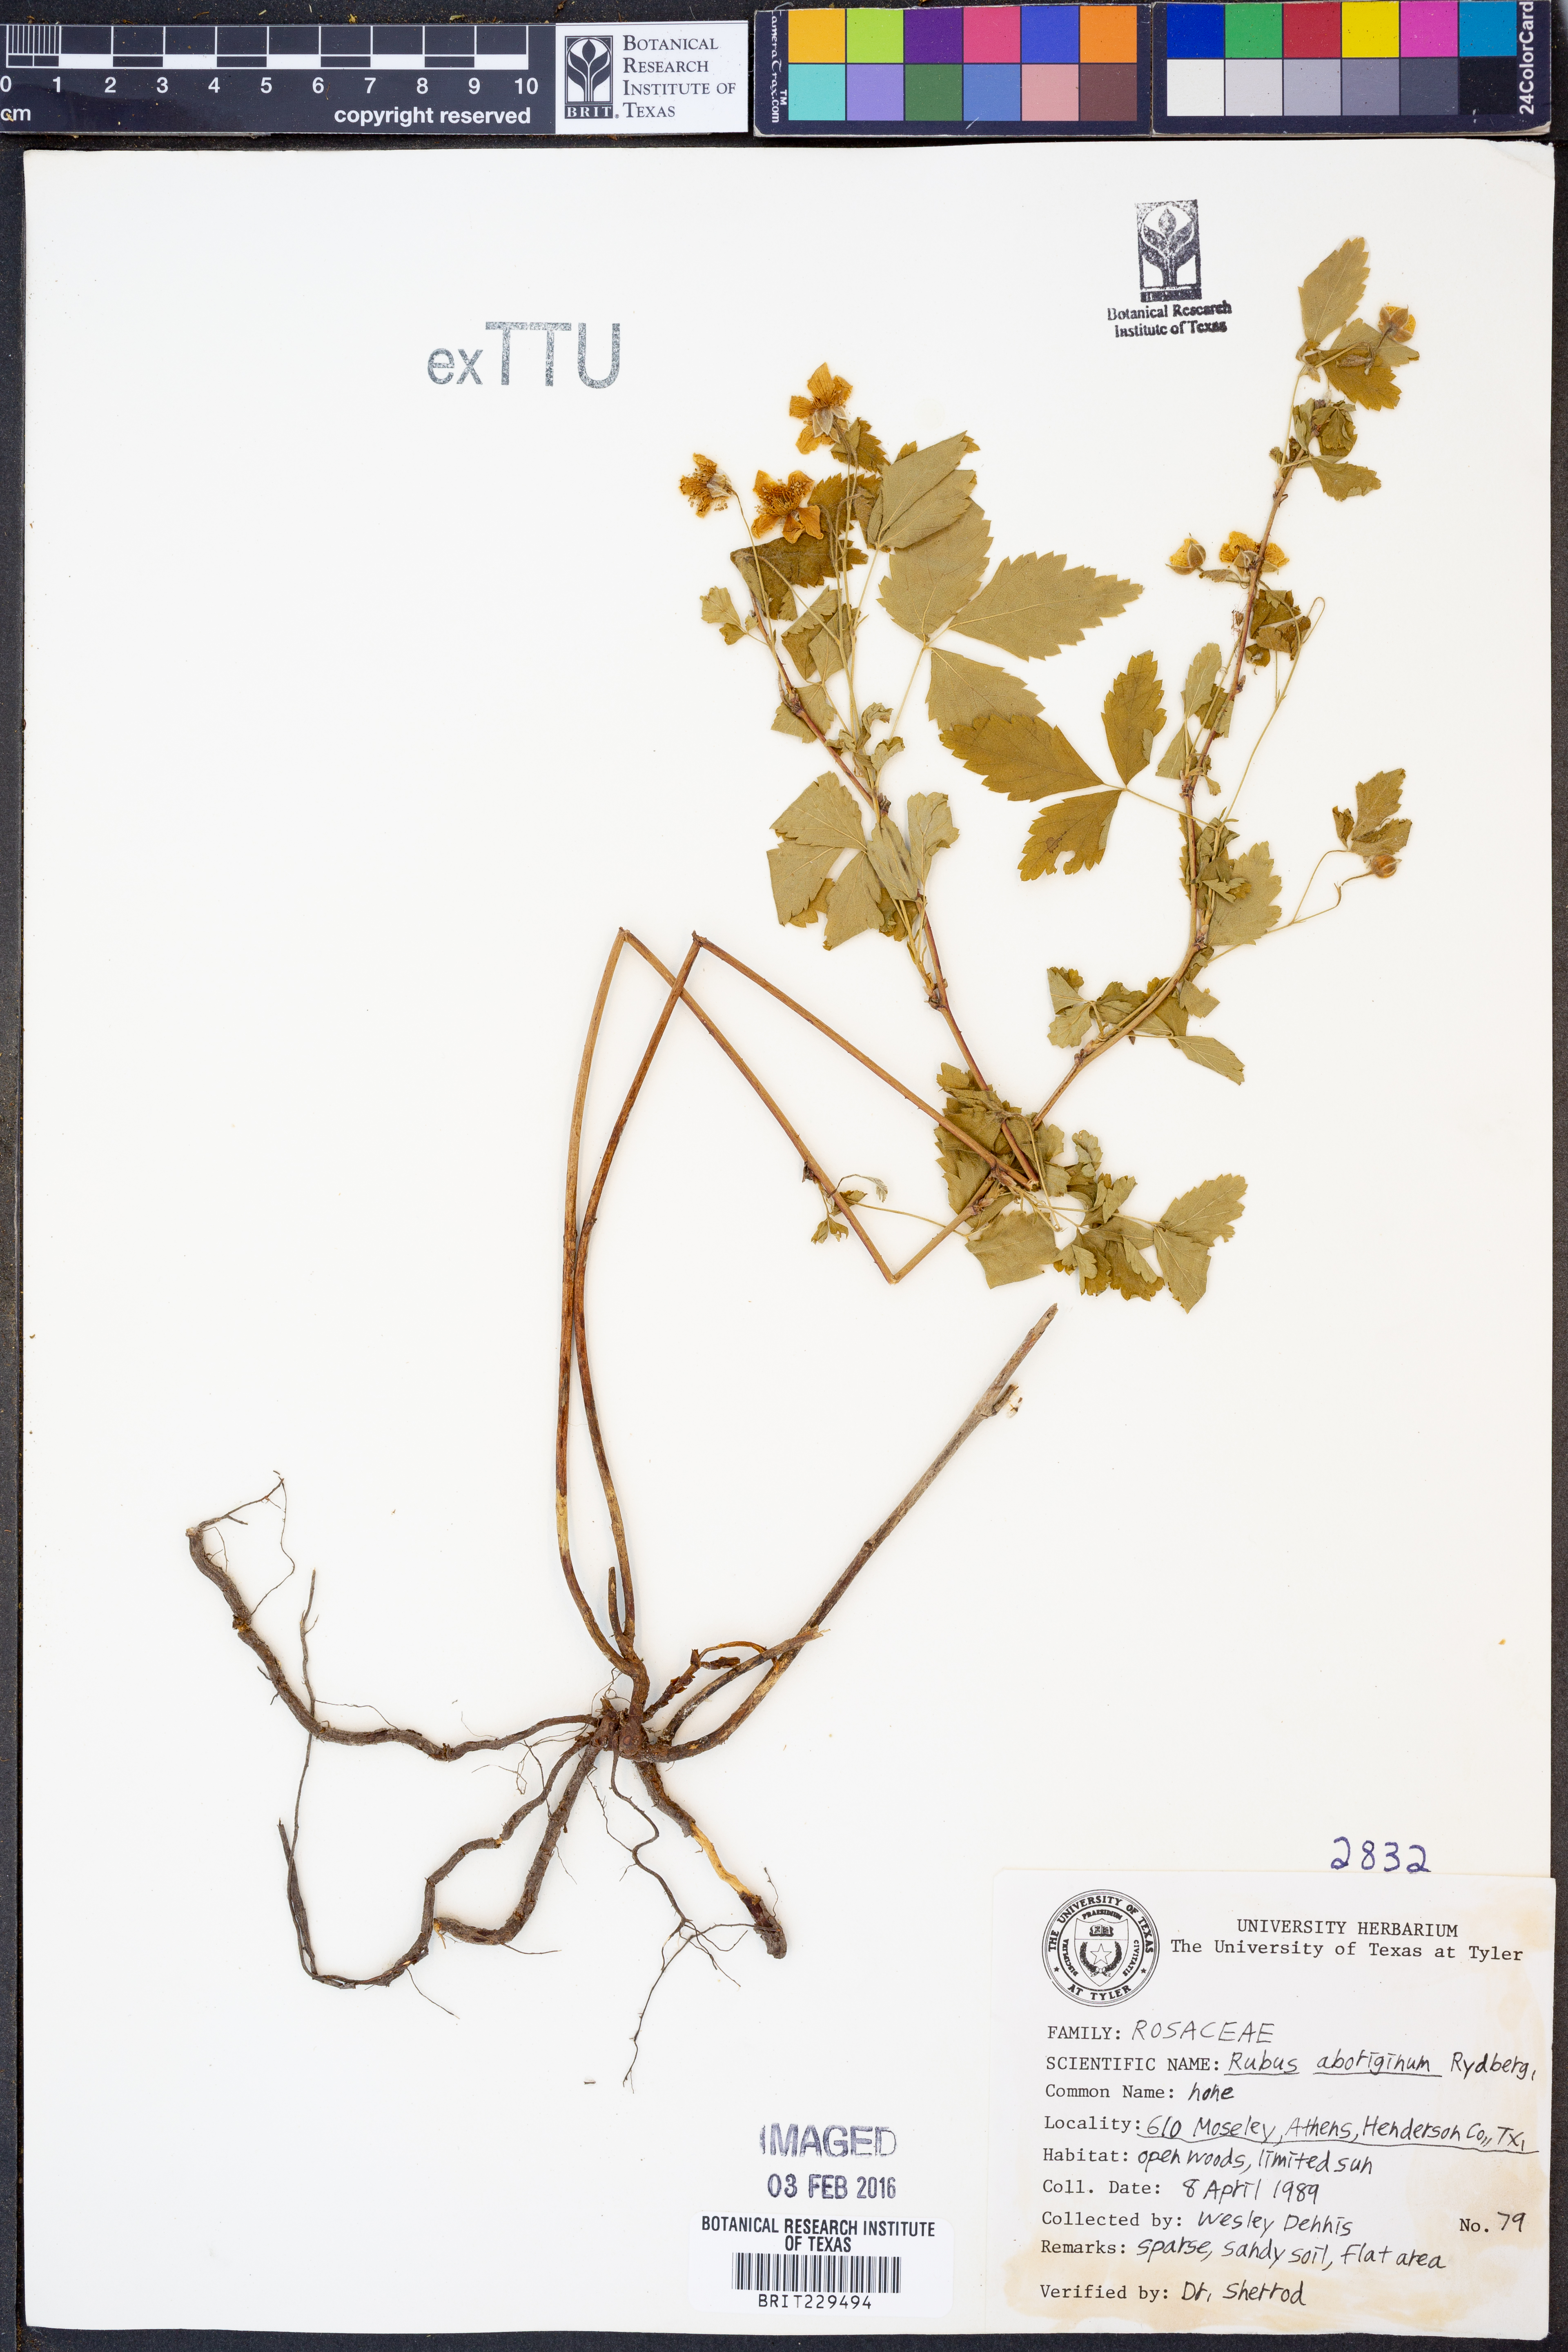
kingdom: Plantae
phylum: Tracheophyta
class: Magnoliopsida
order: Rosales
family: Rosaceae
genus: Rubus
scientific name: Rubus aboriginum
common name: Mayes dewberry
